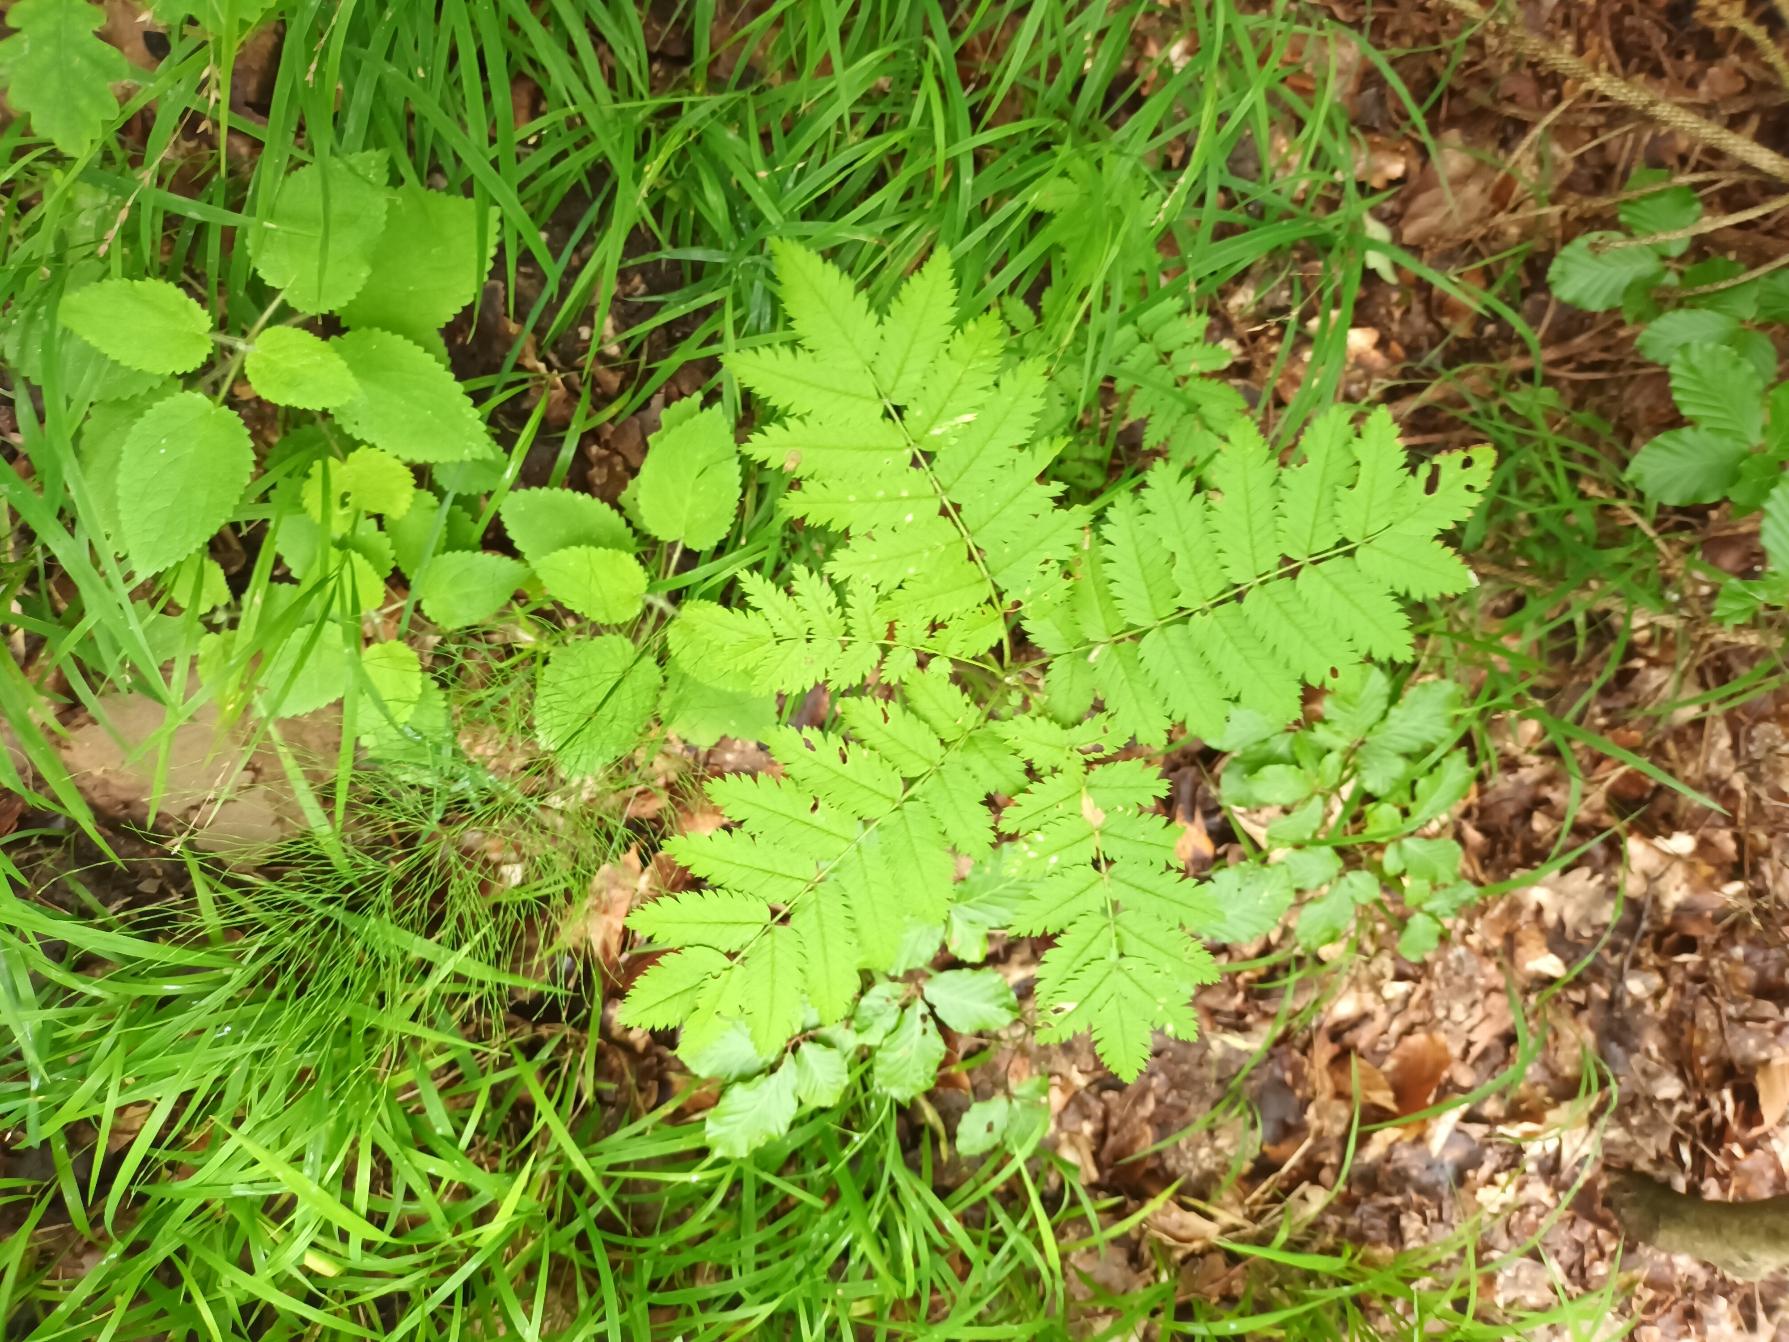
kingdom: Plantae
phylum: Tracheophyta
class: Magnoliopsida
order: Rosales
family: Rosaceae
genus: Sorbus
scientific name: Sorbus aucuparia
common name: Almindelig røn
